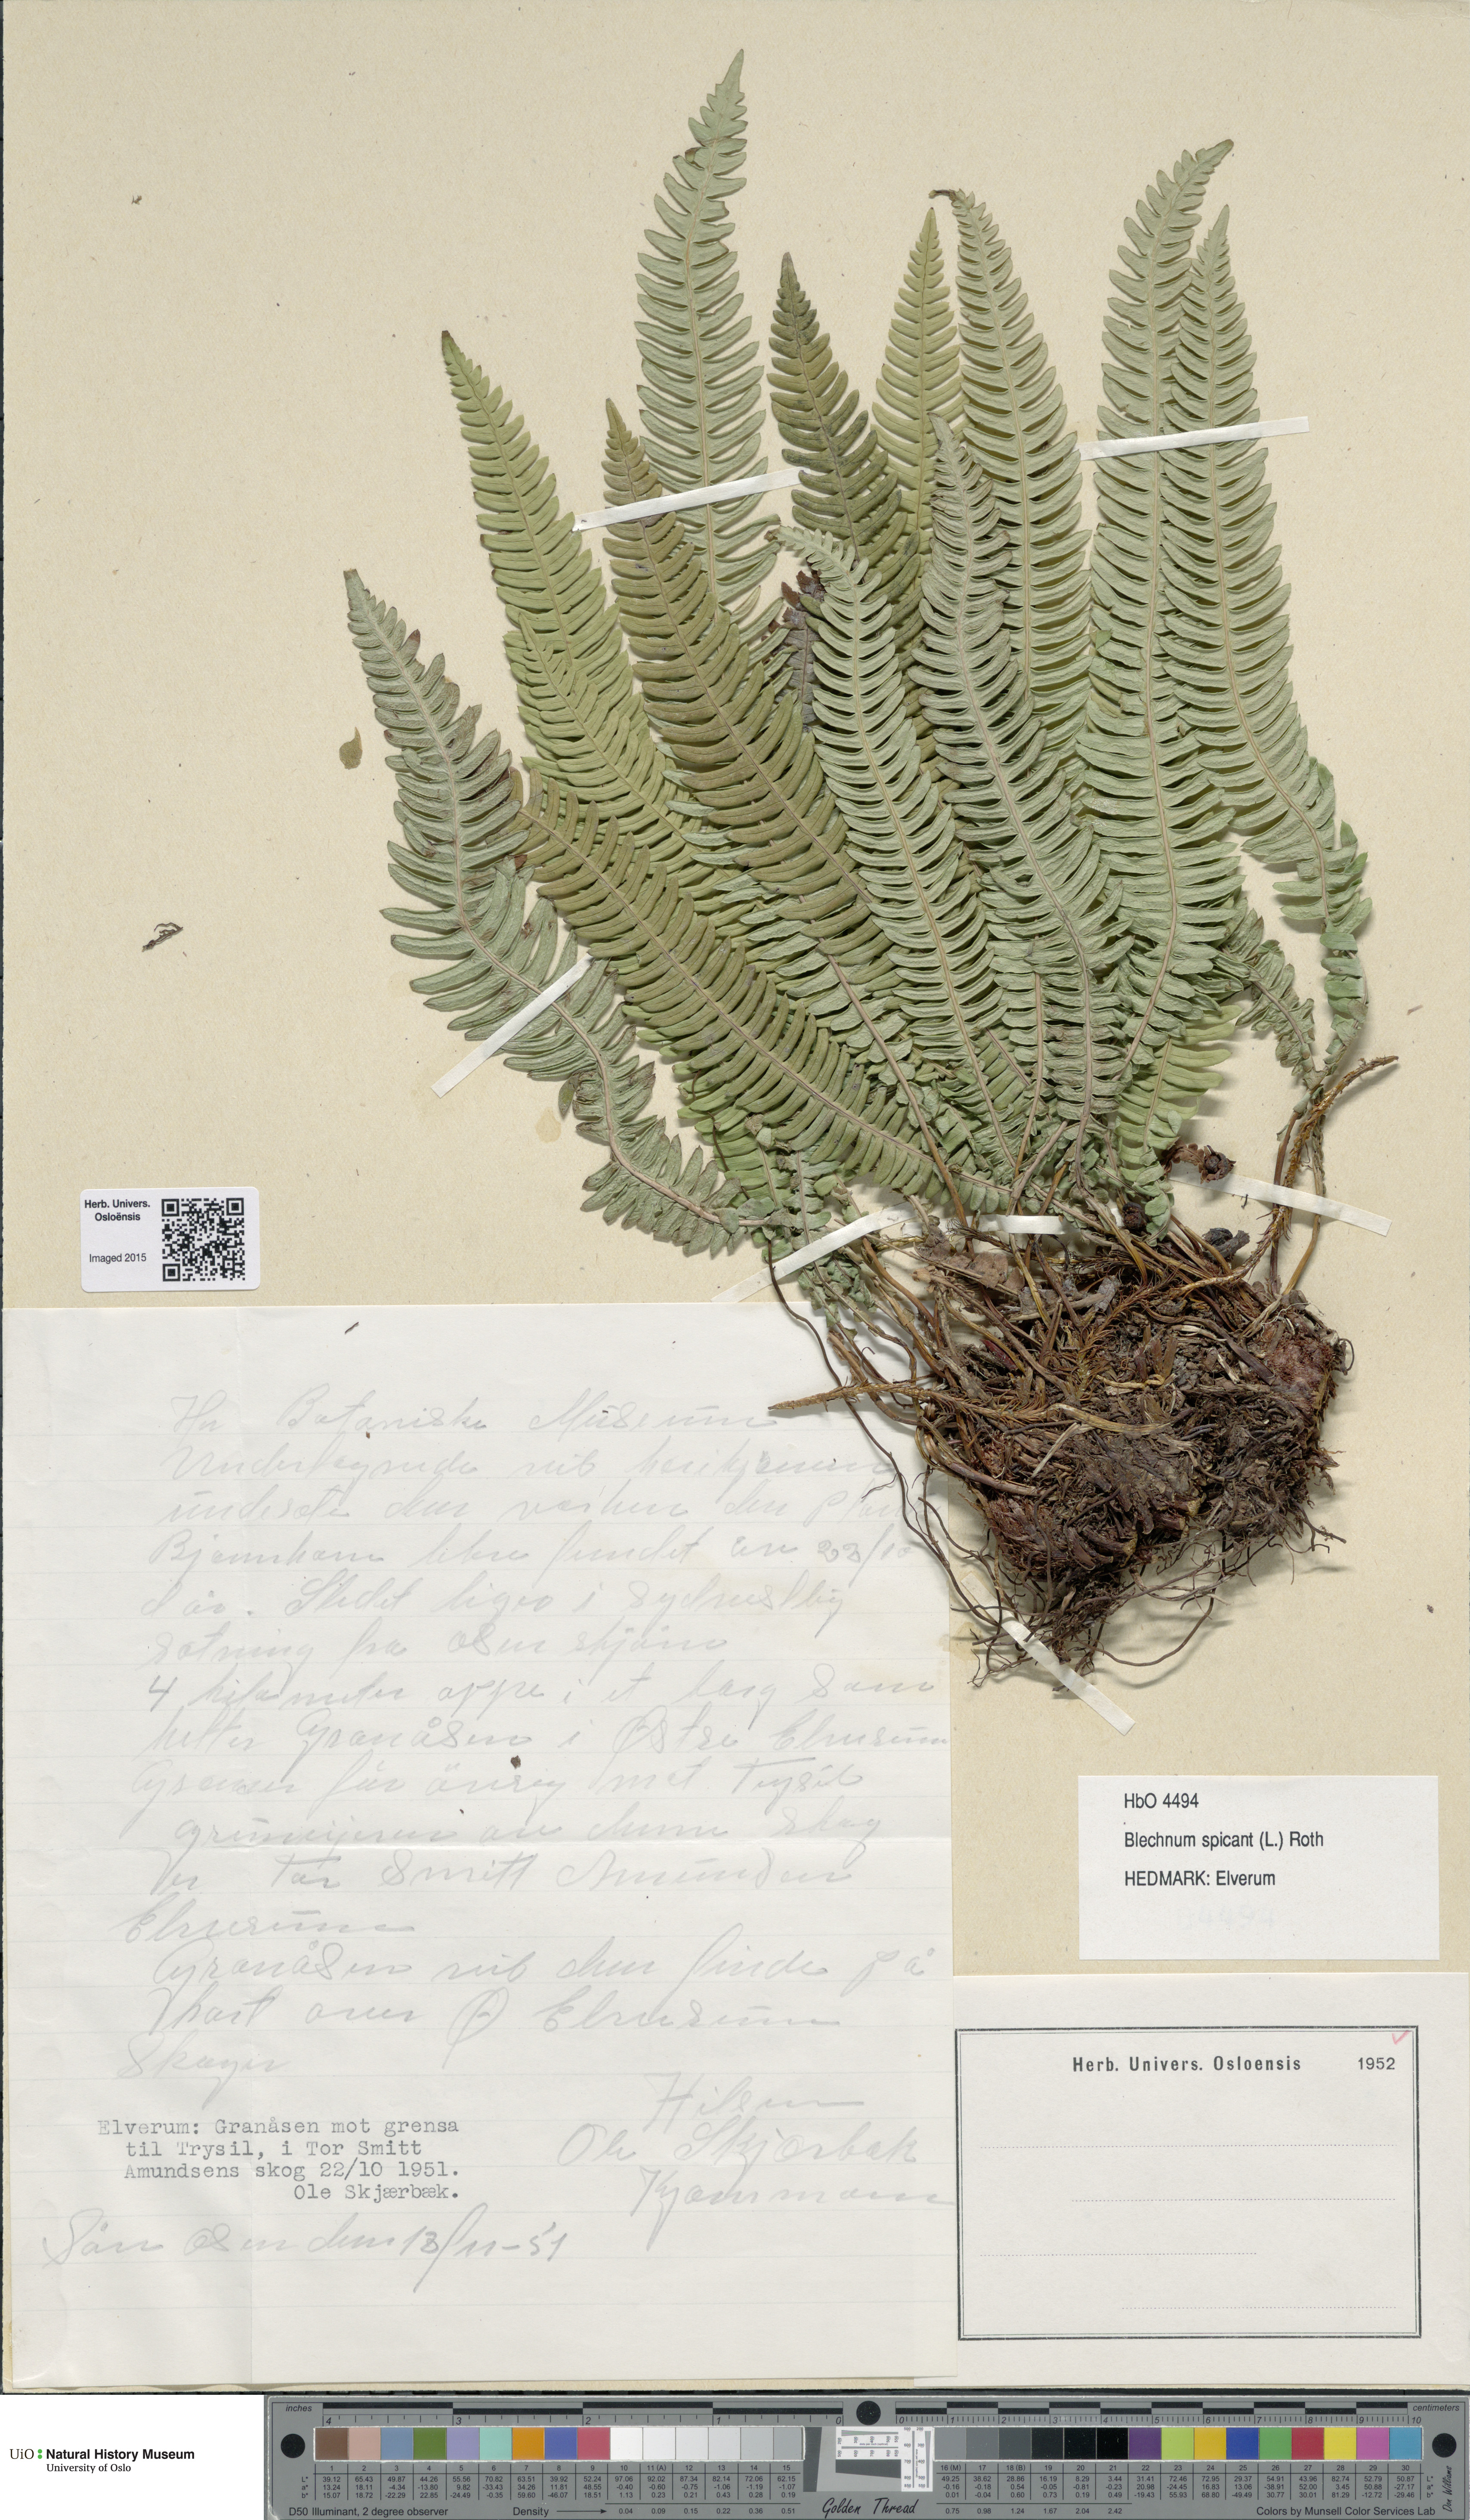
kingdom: Plantae
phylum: Tracheophyta
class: Polypodiopsida
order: Polypodiales
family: Blechnaceae
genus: Struthiopteris
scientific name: Struthiopteris spicant
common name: Deer fern
